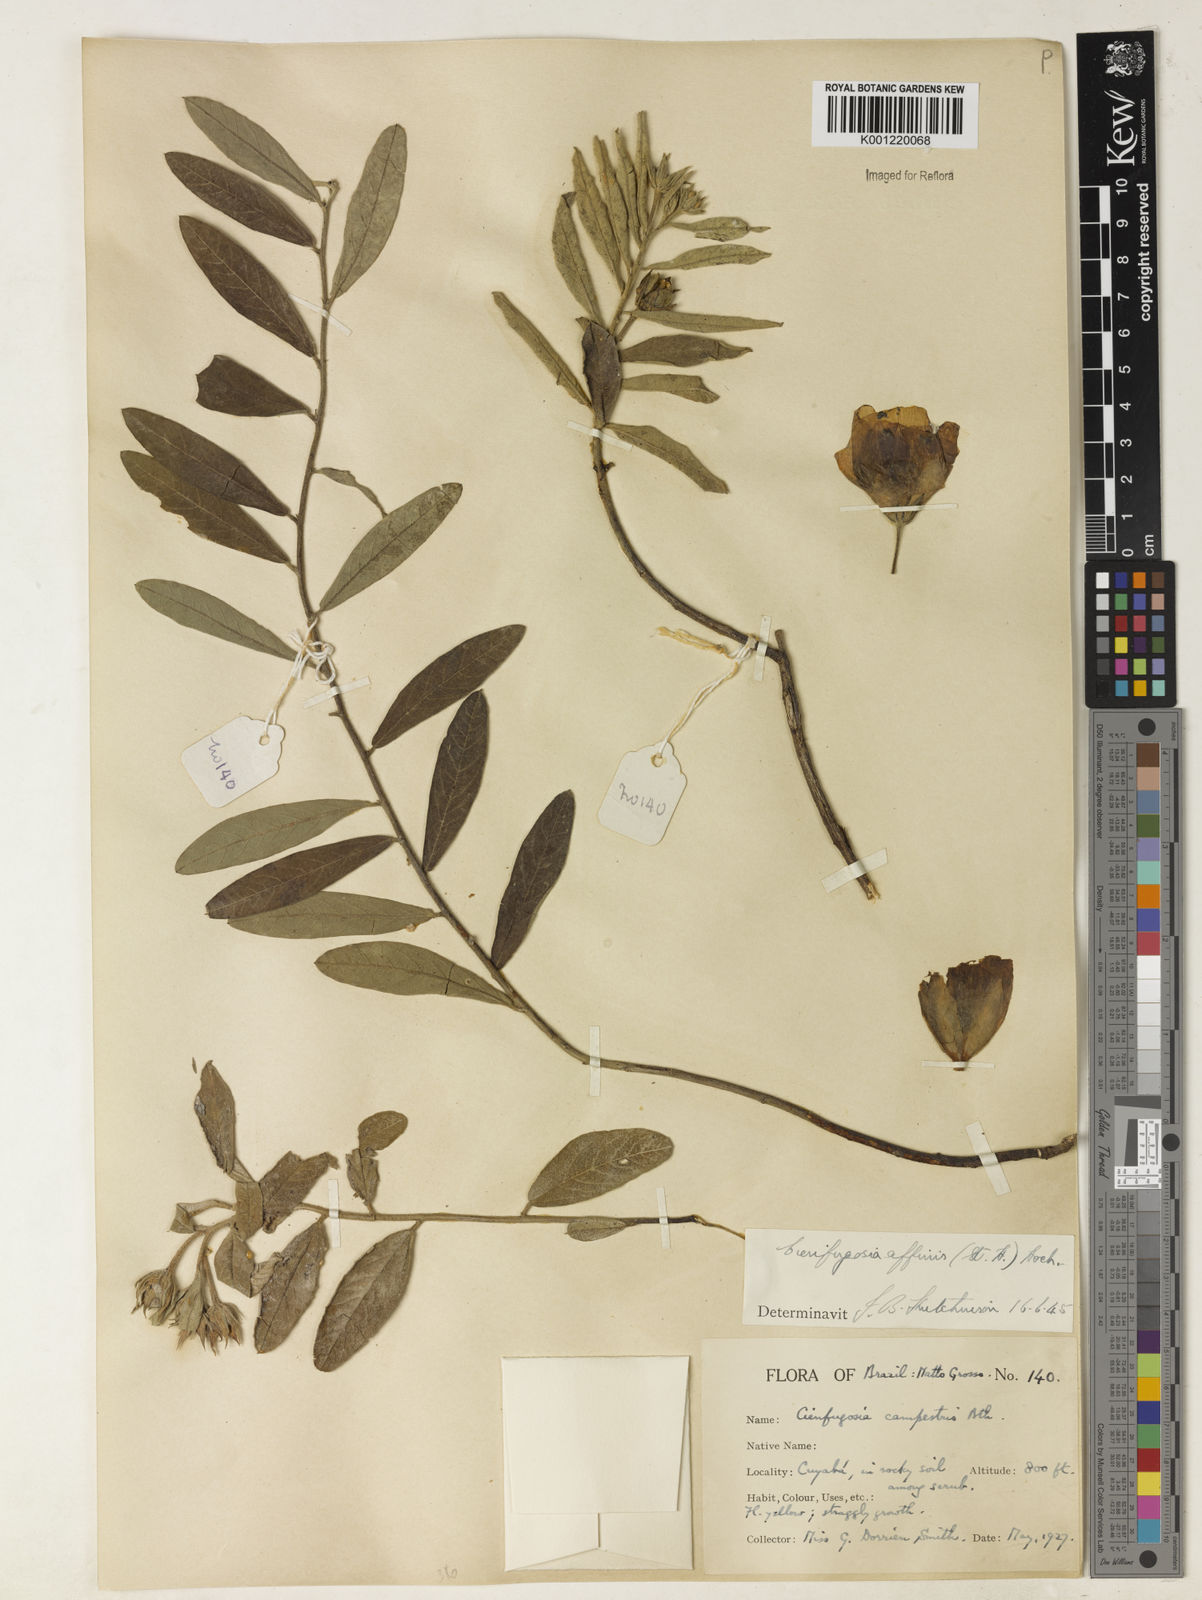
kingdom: Plantae
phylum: Tracheophyta
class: Magnoliopsida
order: Malvales
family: Malvaceae
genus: Cienfuegosia
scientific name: Cienfuegosia affinis
